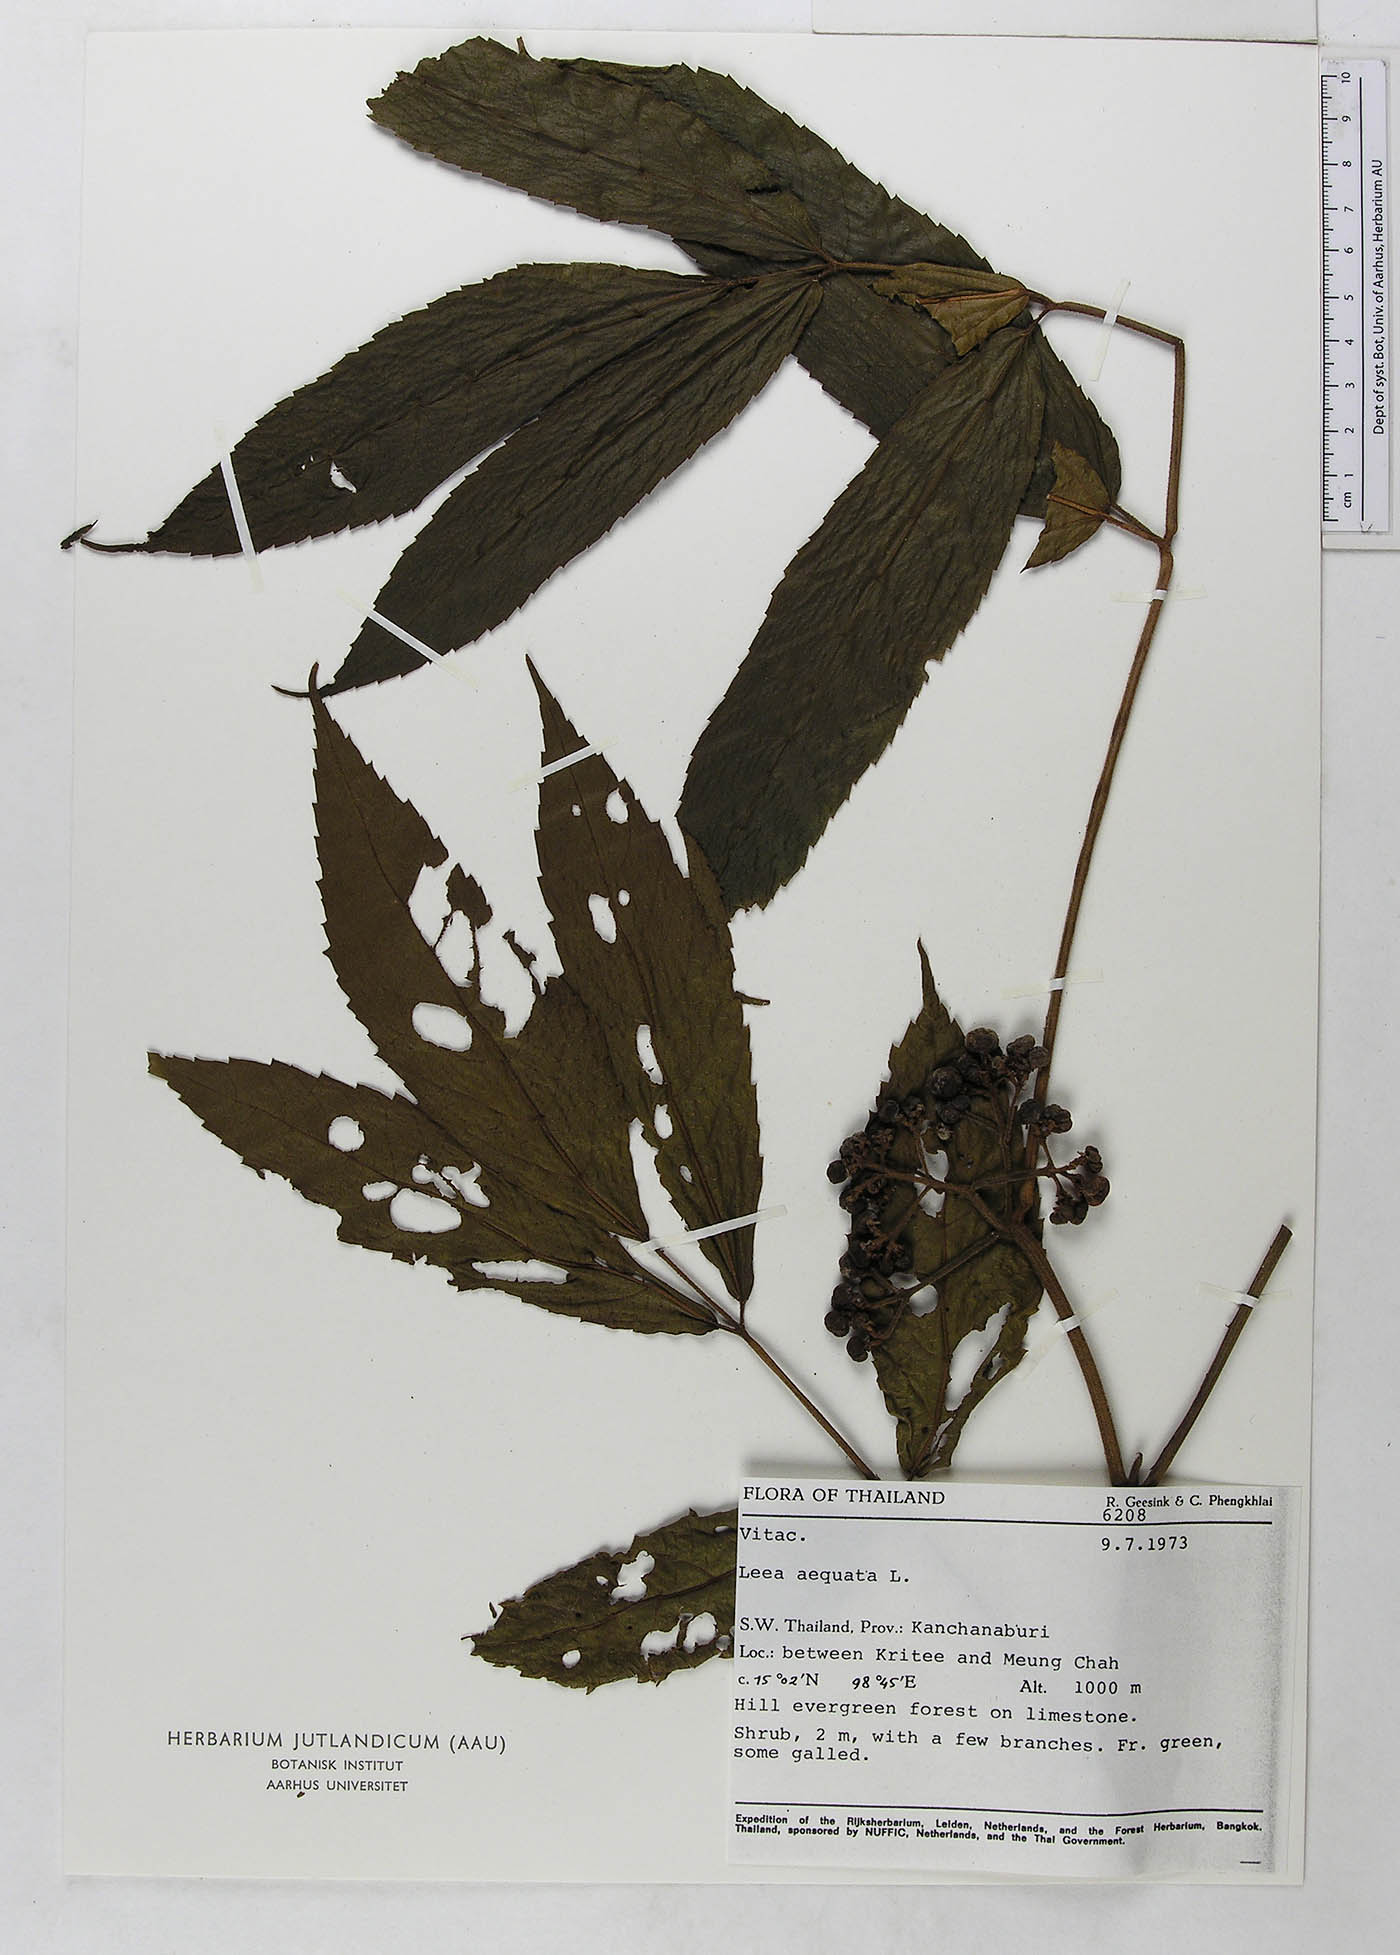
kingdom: Plantae
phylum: Tracheophyta
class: Magnoliopsida
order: Vitales
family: Vitaceae
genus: Leea
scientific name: Leea aequata
